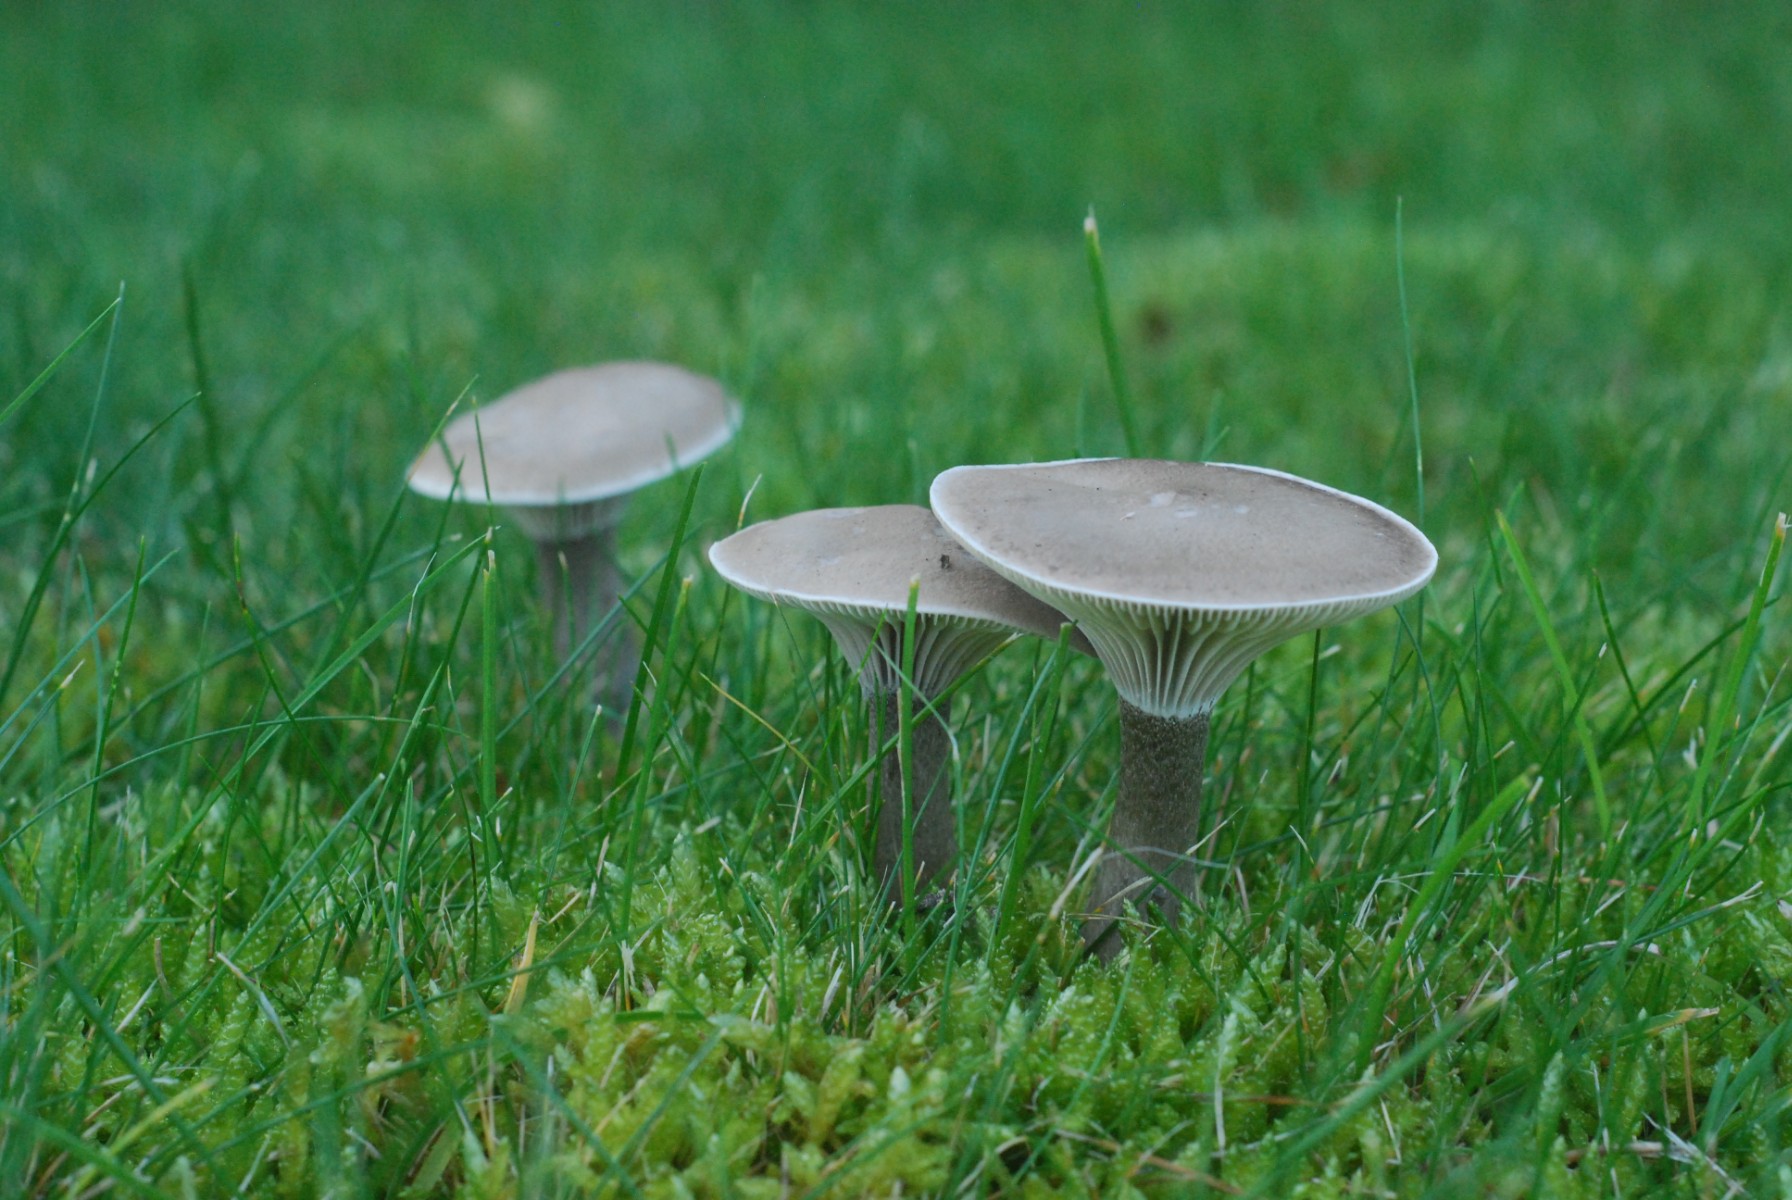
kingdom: Fungi
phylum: Basidiomycota
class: Agaricomycetes
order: Agaricales
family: Hygrophoraceae
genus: Ampulloclitocybe
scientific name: Ampulloclitocybe clavipes
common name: køllefod
